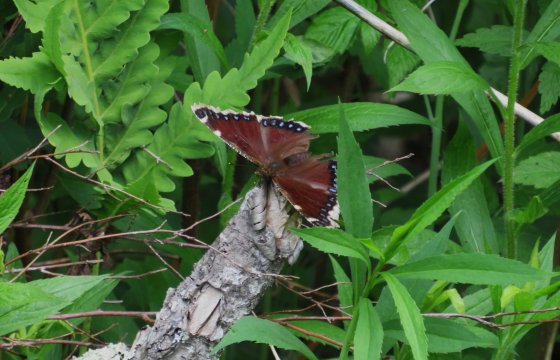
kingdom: Animalia
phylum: Arthropoda
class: Insecta
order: Lepidoptera
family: Nymphalidae
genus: Nymphalis
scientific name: Nymphalis antiopa
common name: Mourning Cloak
